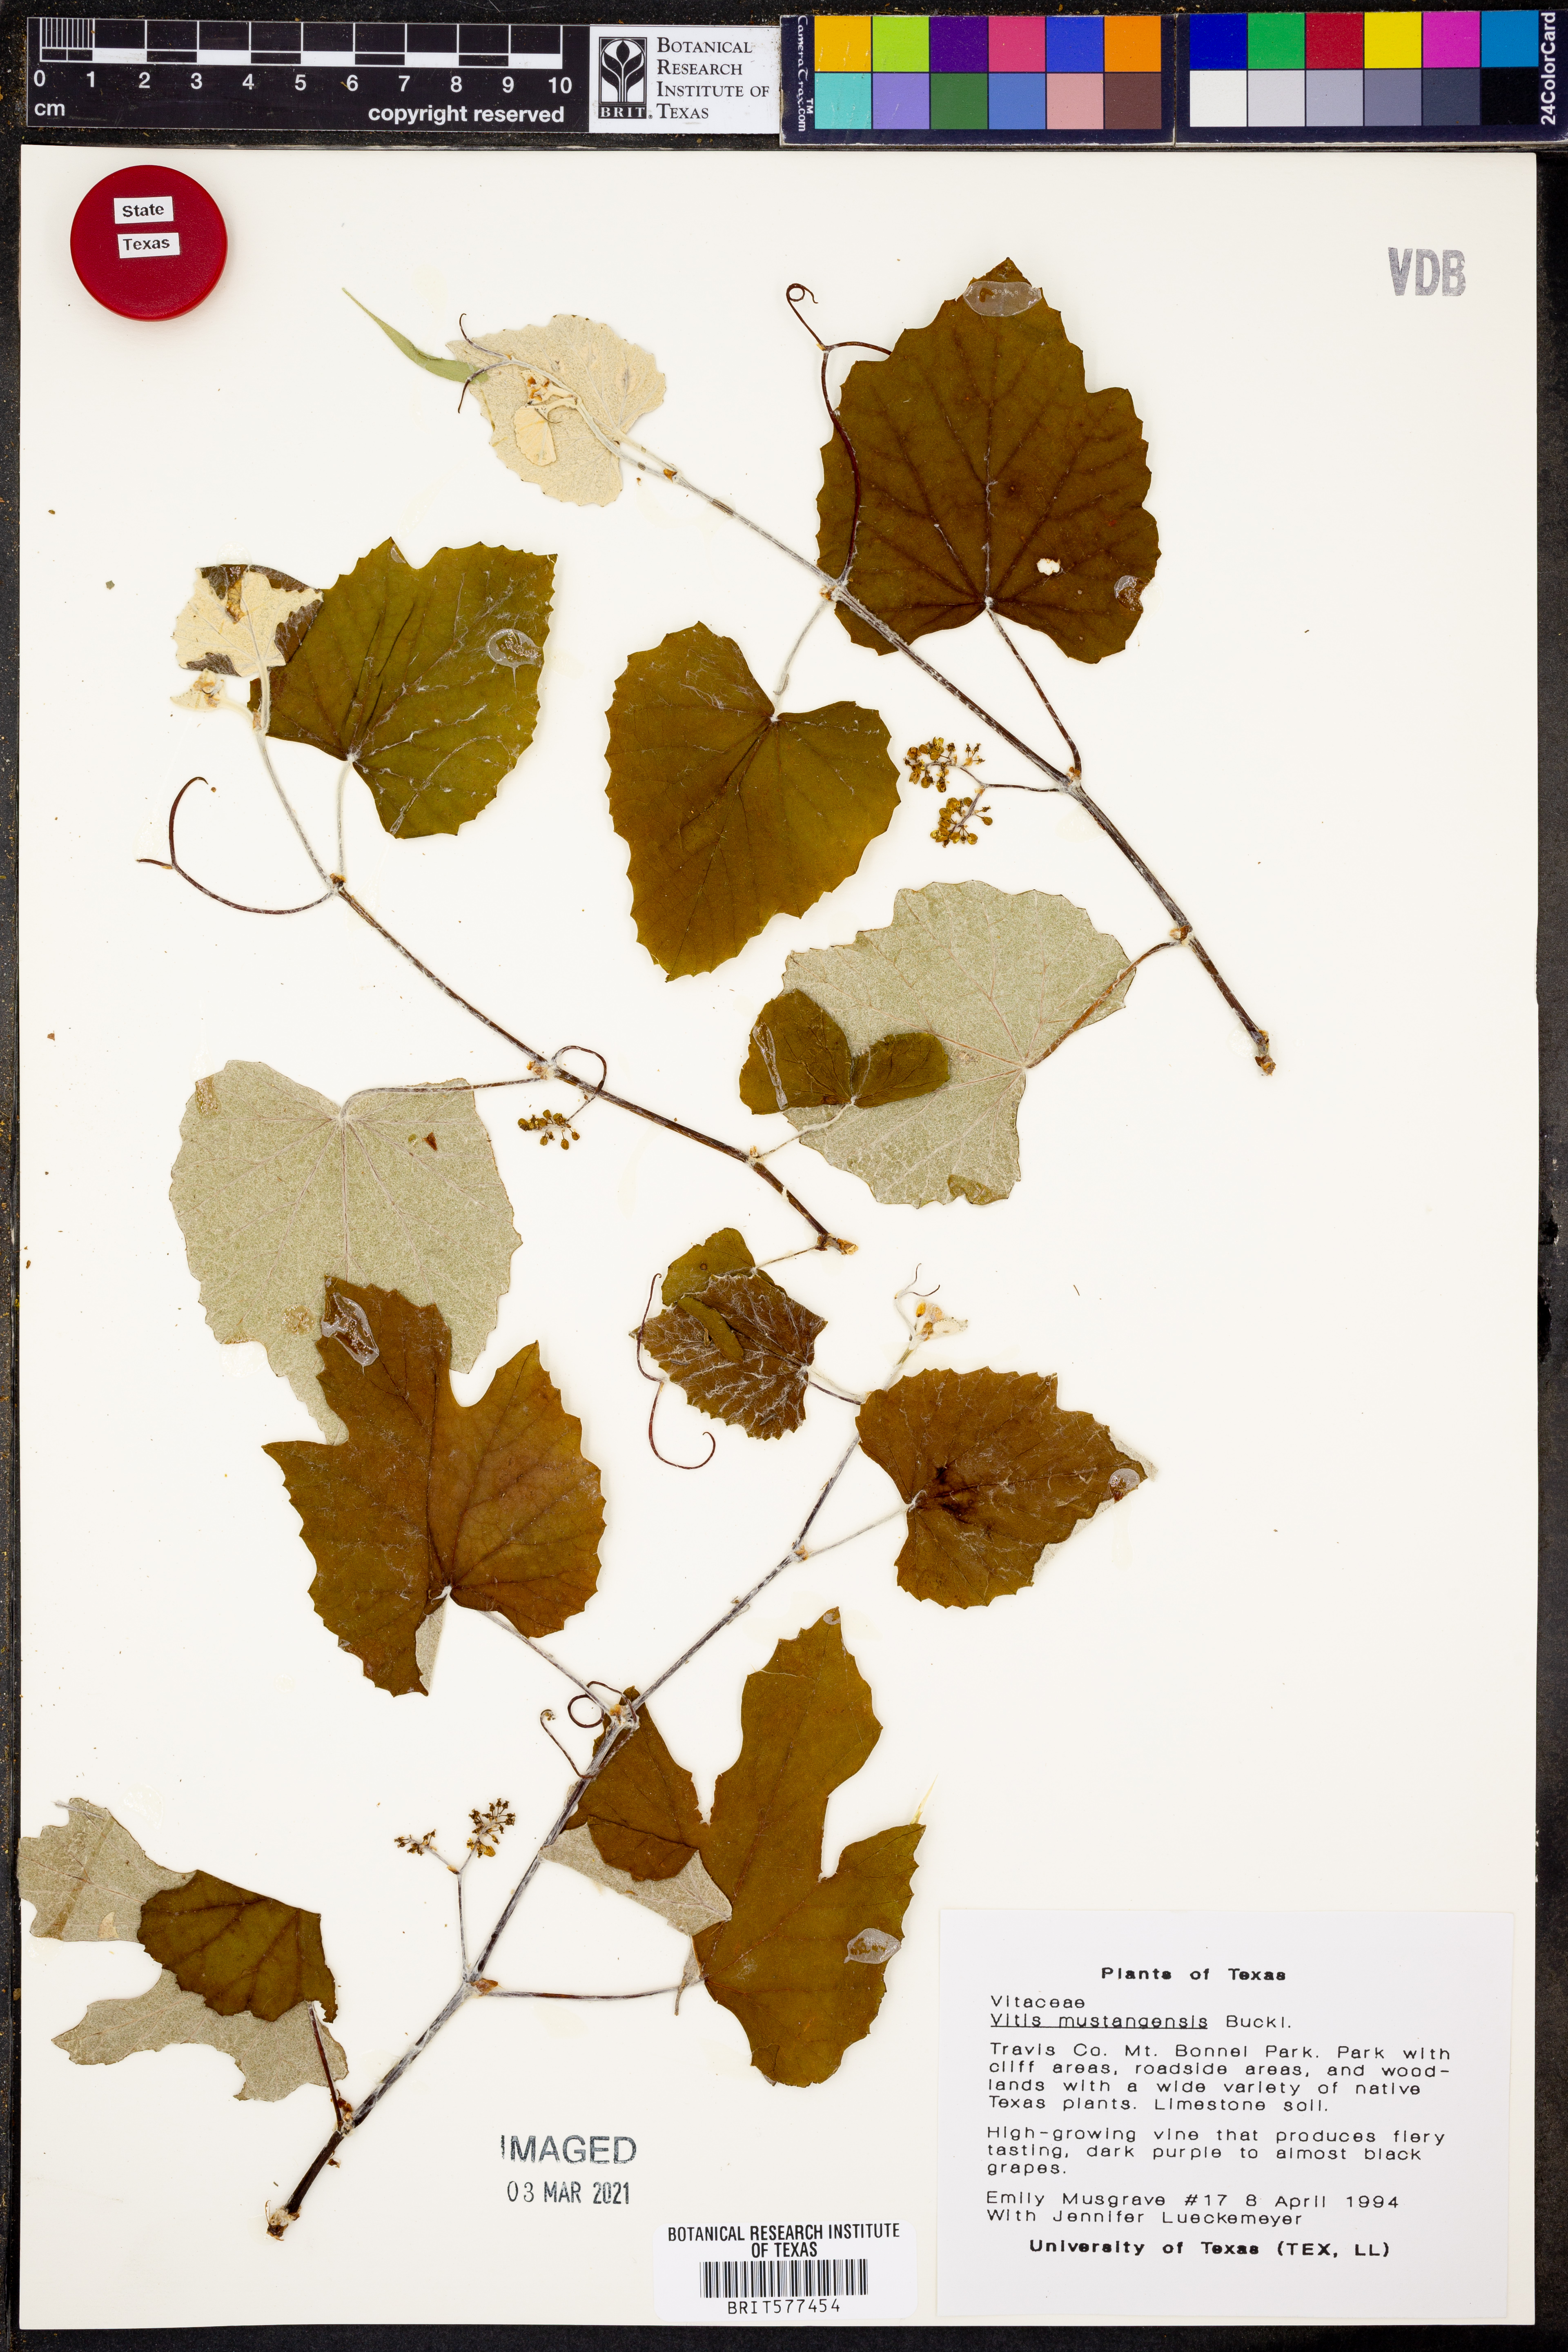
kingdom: Plantae
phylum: Tracheophyta
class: Magnoliopsida
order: Vitales
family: Vitaceae
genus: Vitis
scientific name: Vitis mustangensis
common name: Mustang grape
